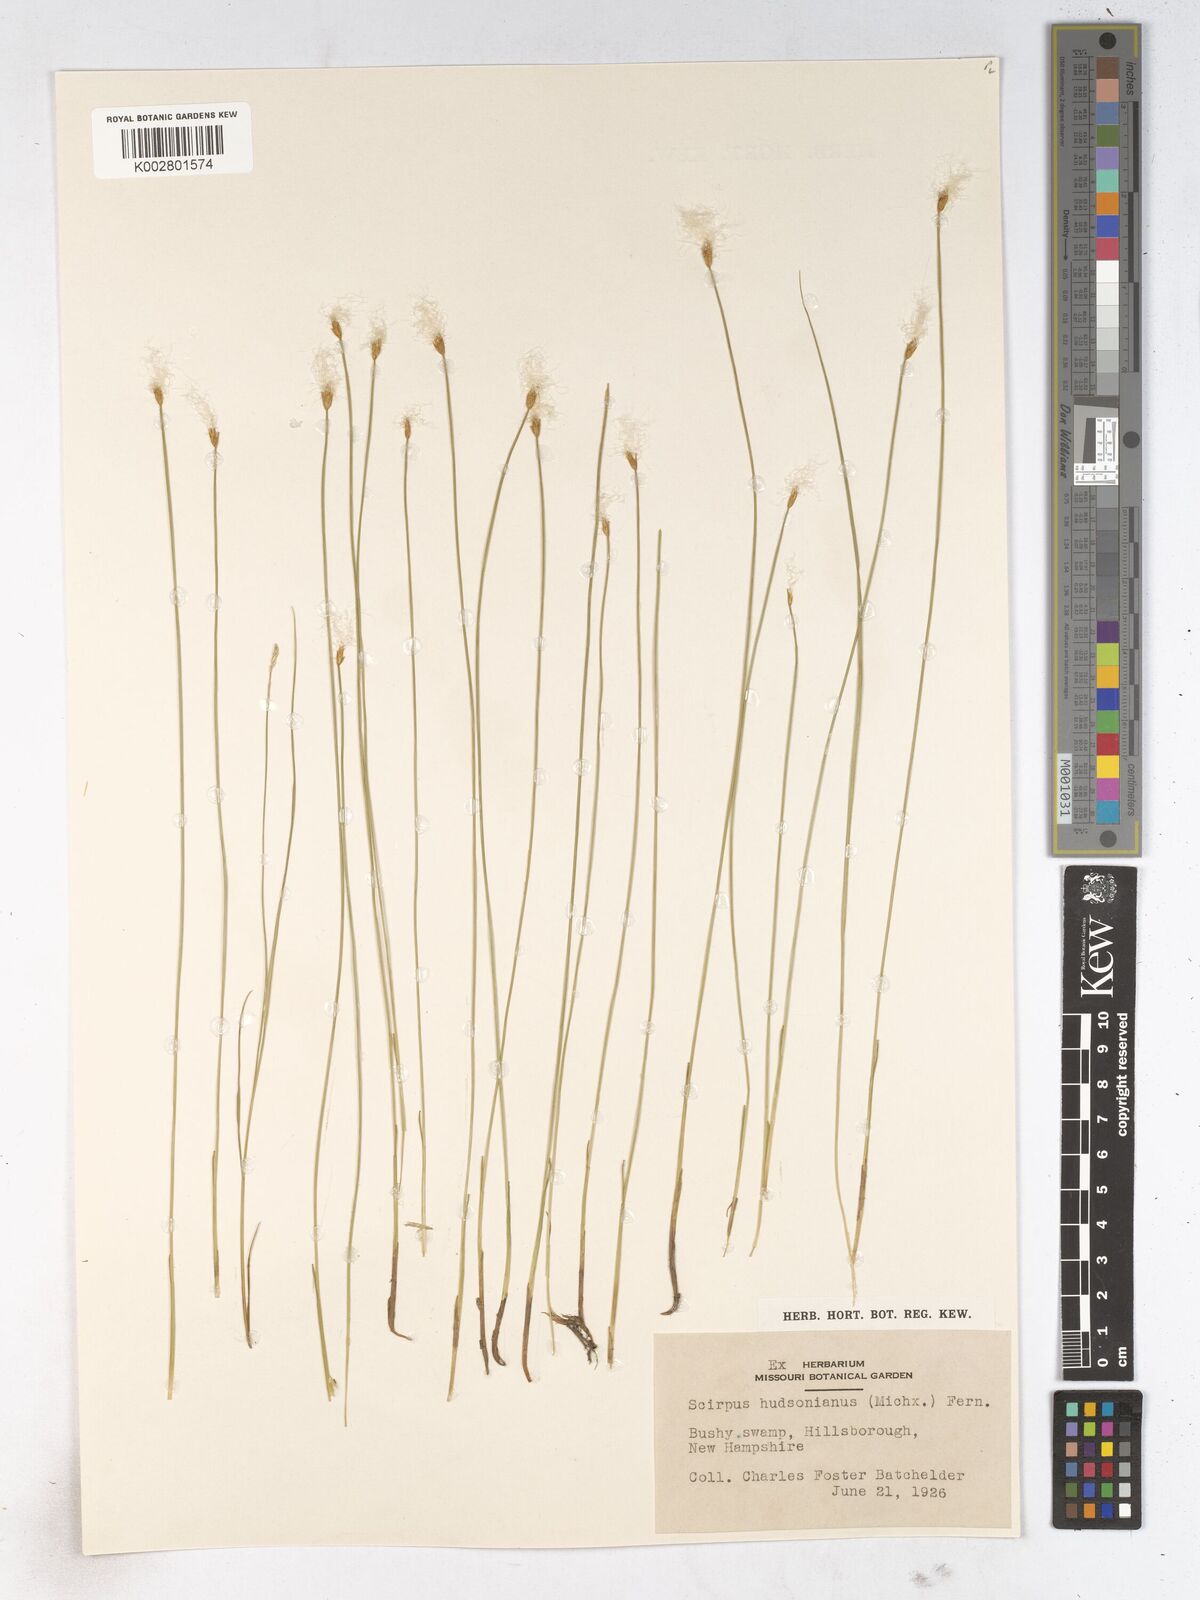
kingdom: Plantae
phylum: Tracheophyta
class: Liliopsida
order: Poales
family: Cyperaceae
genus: Trichophorum
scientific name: Trichophorum alpinum
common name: Alpine bulrush
